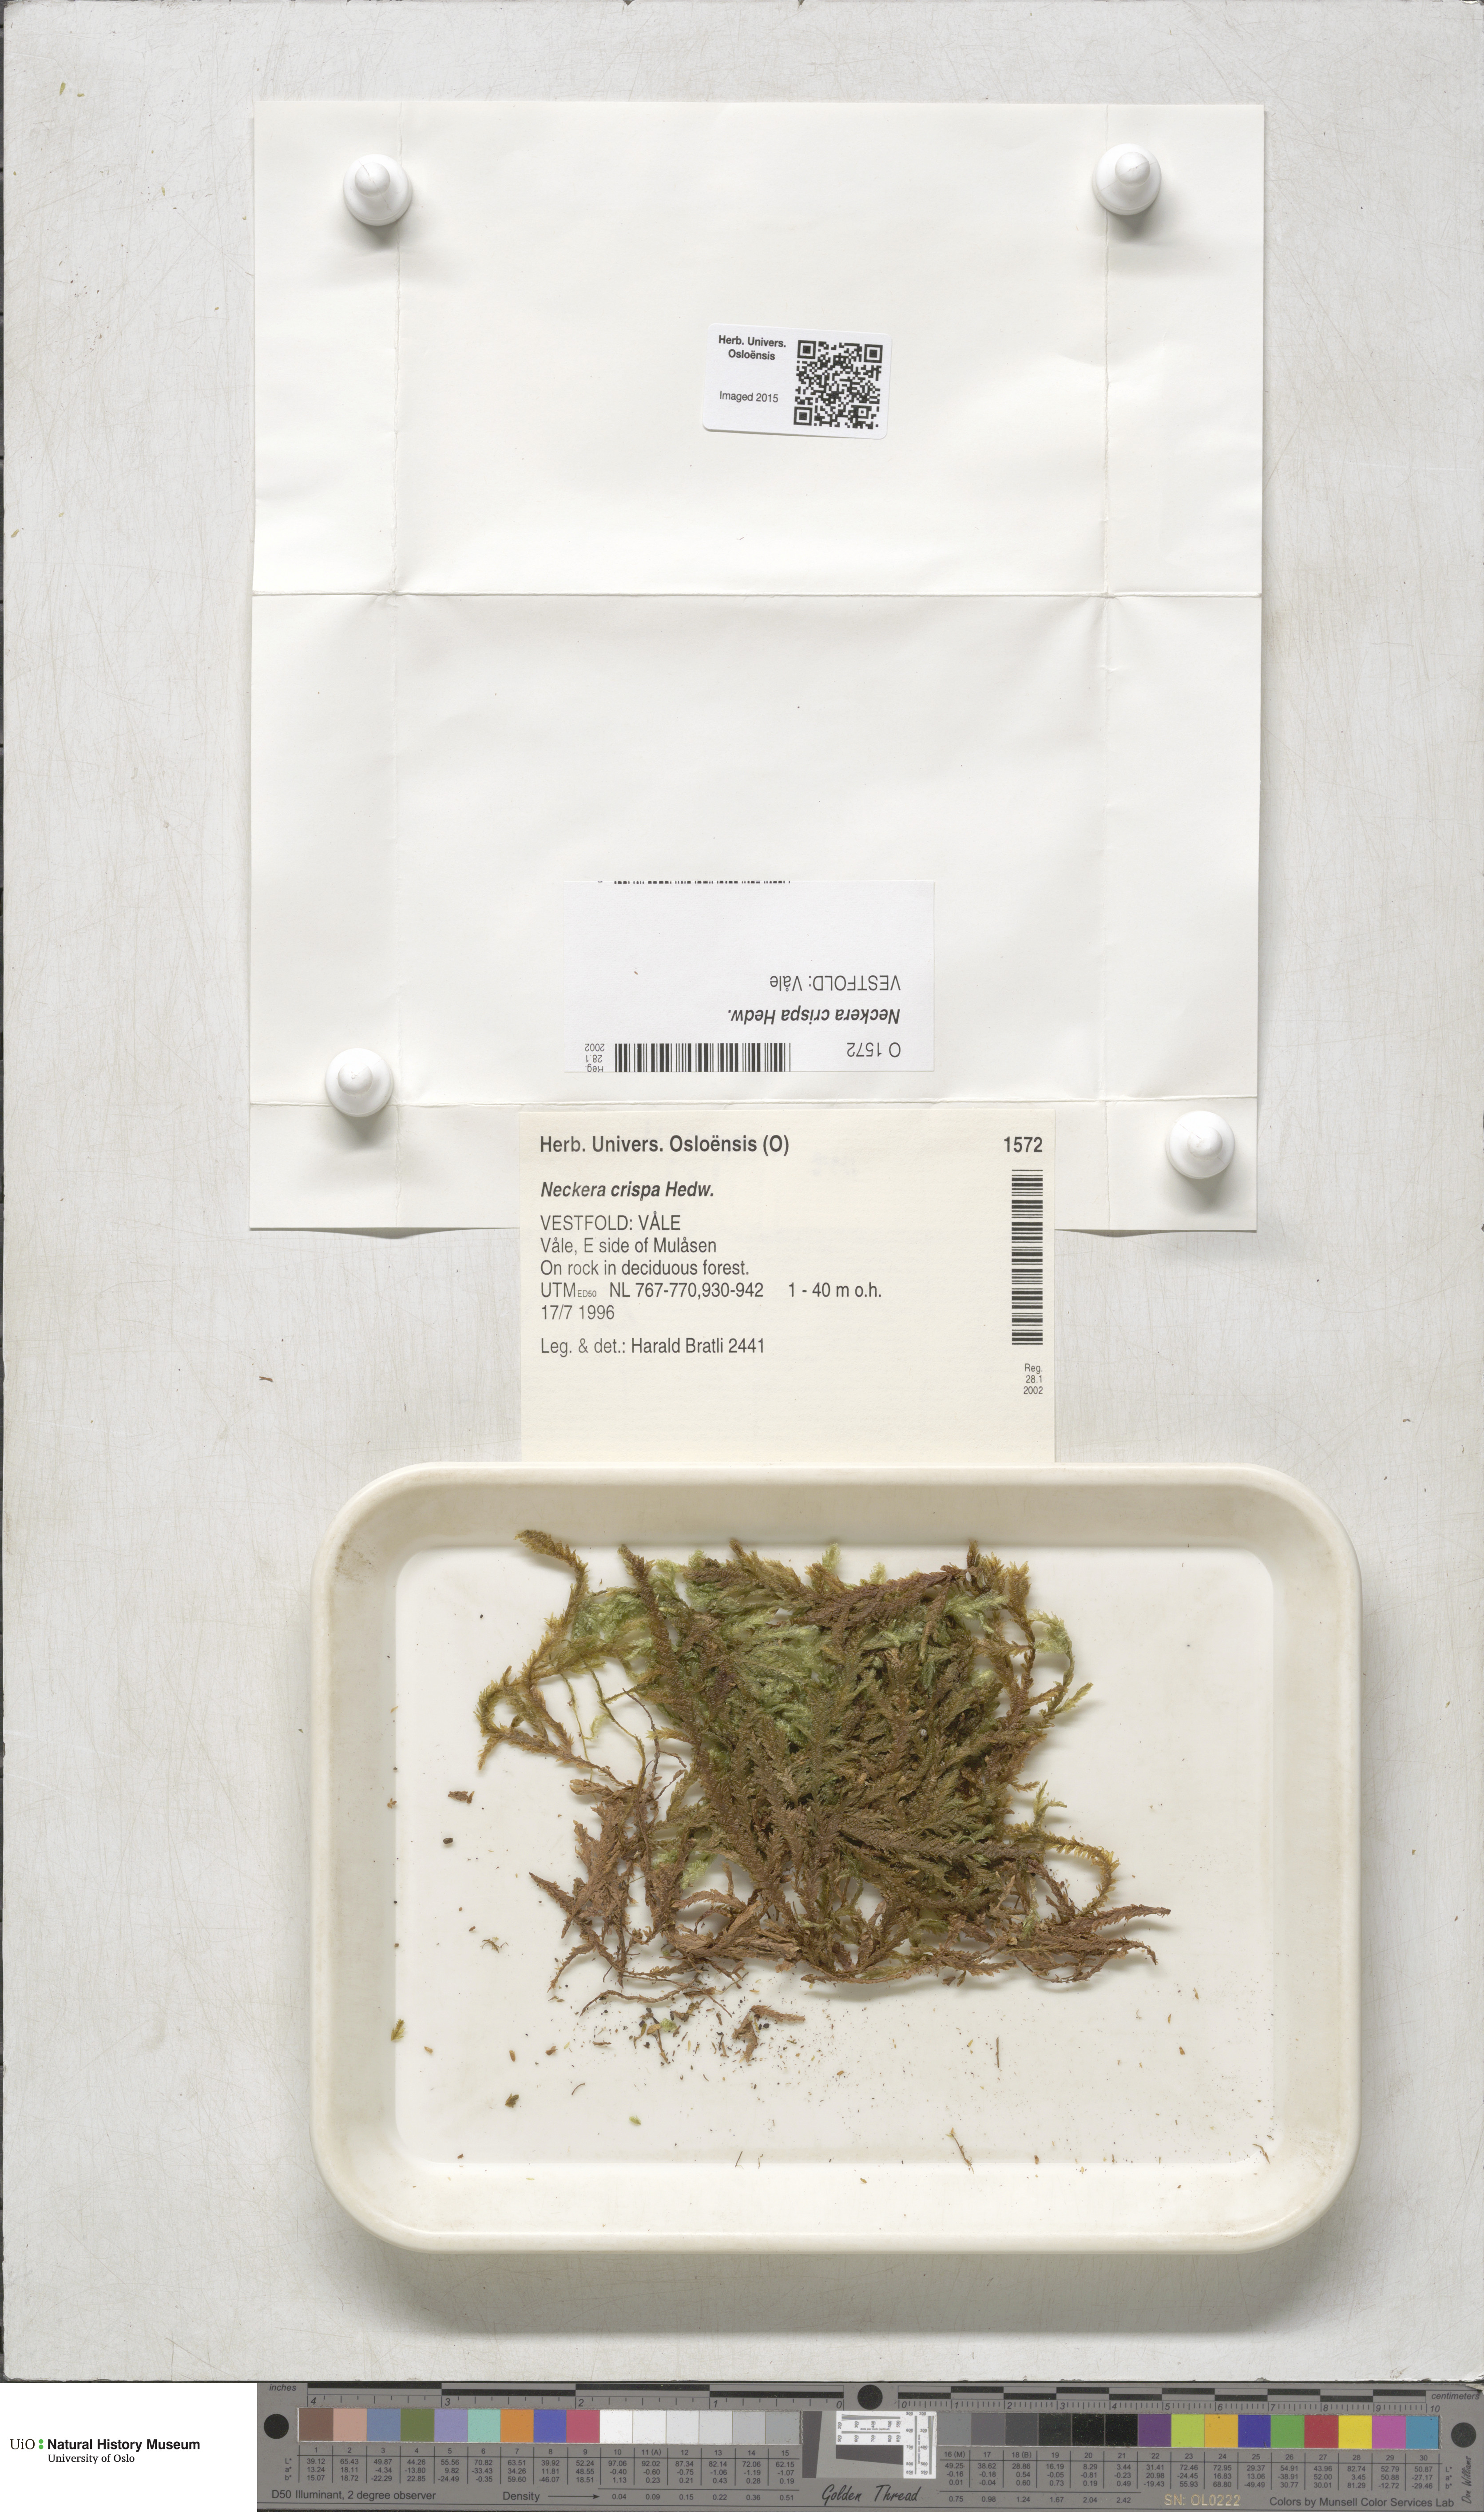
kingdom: Plantae
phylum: Bryophyta
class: Bryopsida
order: Hypnales
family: Neckeraceae
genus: Exsertotheca
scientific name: Exsertotheca crispa
